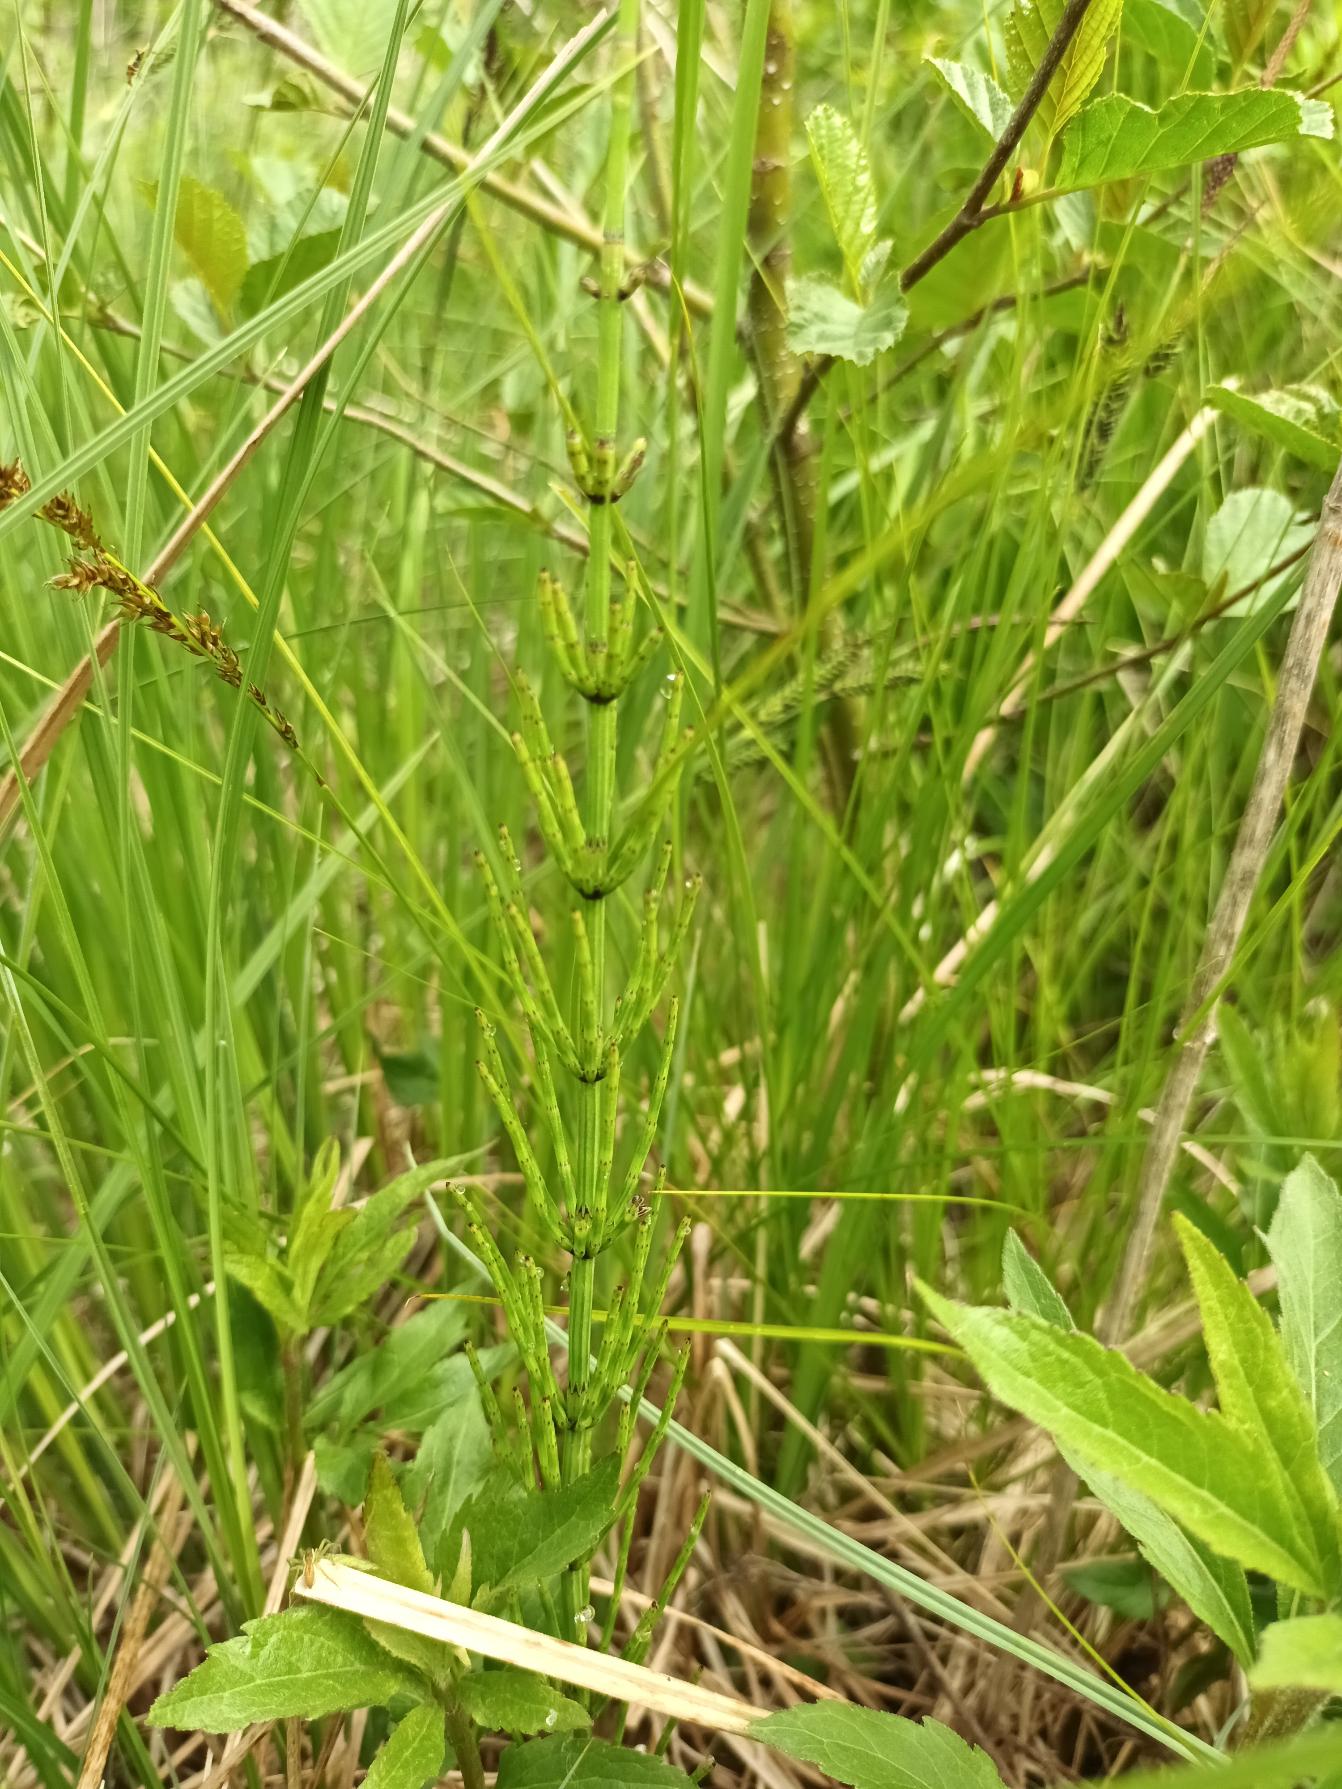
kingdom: Plantae
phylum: Tracheophyta
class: Polypodiopsida
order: Equisetales
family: Equisetaceae
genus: Equisetum
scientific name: Equisetum palustre
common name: Kær-padderok
